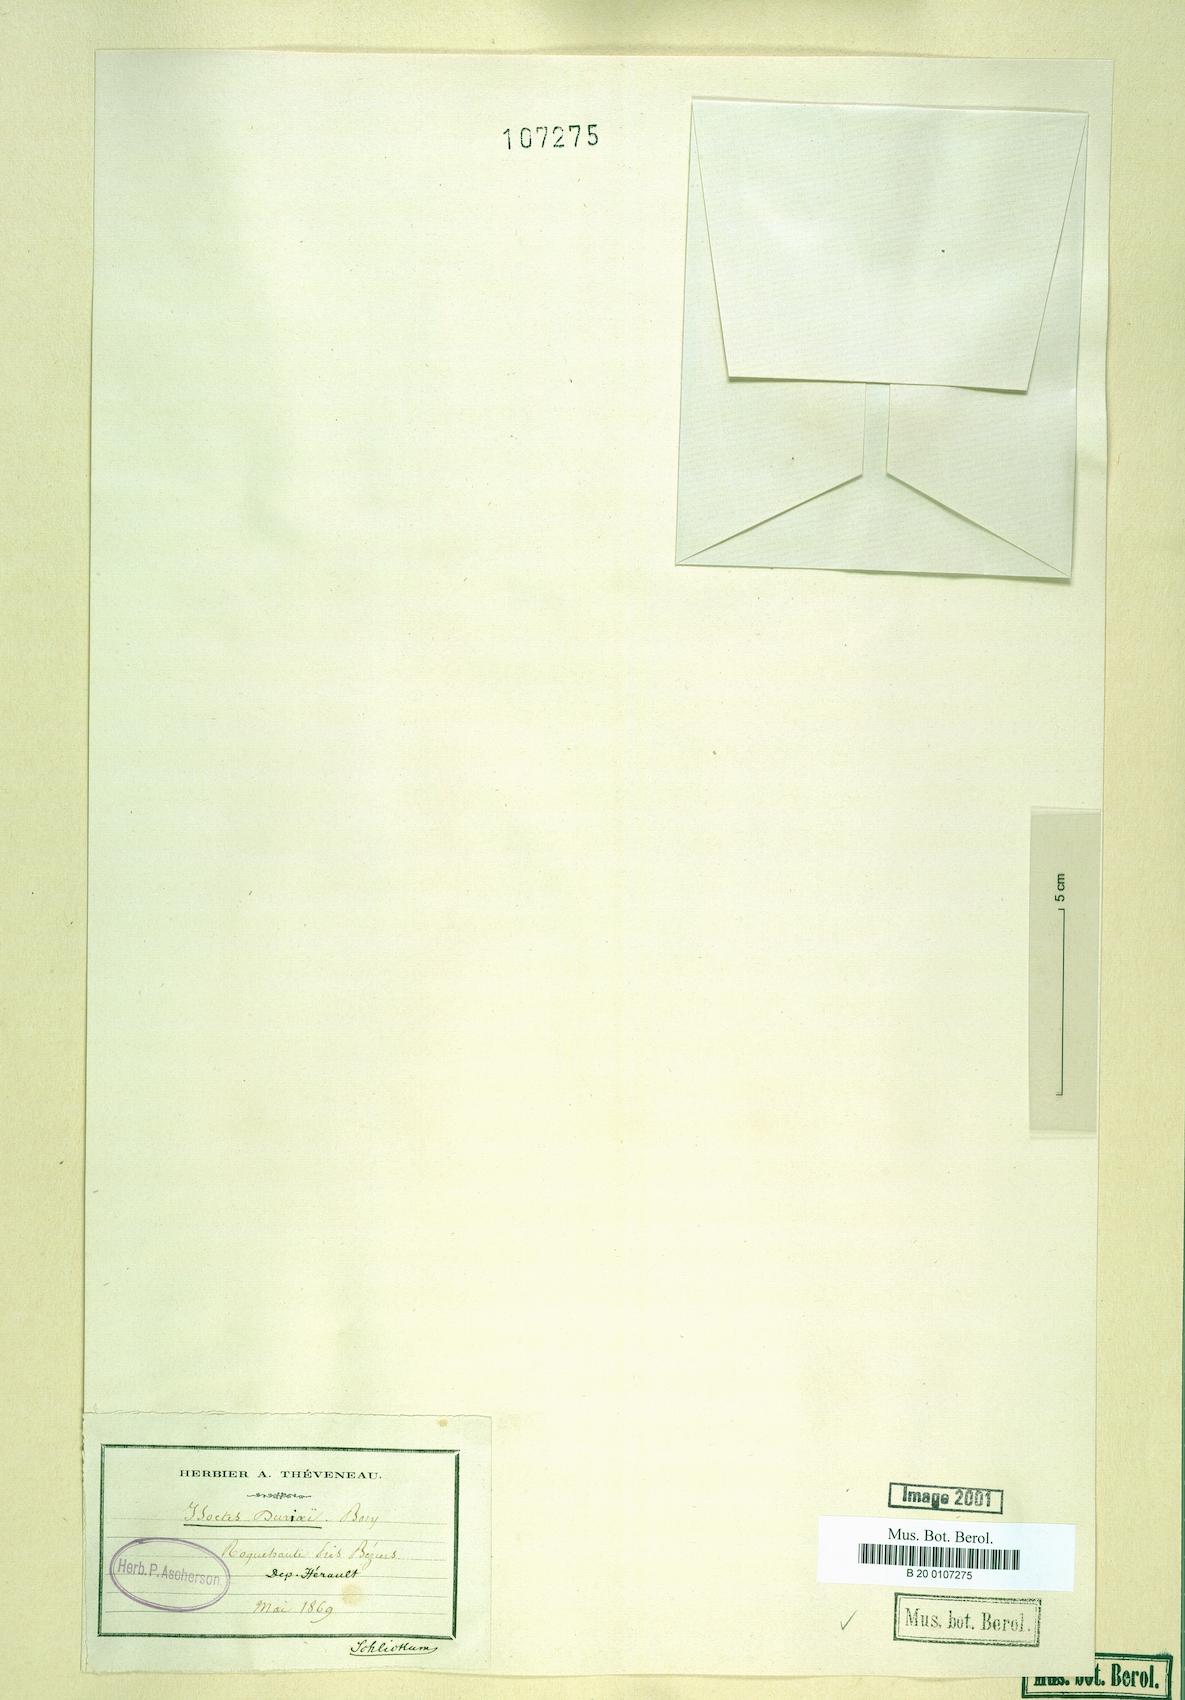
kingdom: Plantae
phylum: Tracheophyta
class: Lycopodiopsida
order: Isoetales
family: Isoetaceae
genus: Isoetes
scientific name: Isoetes duriei
